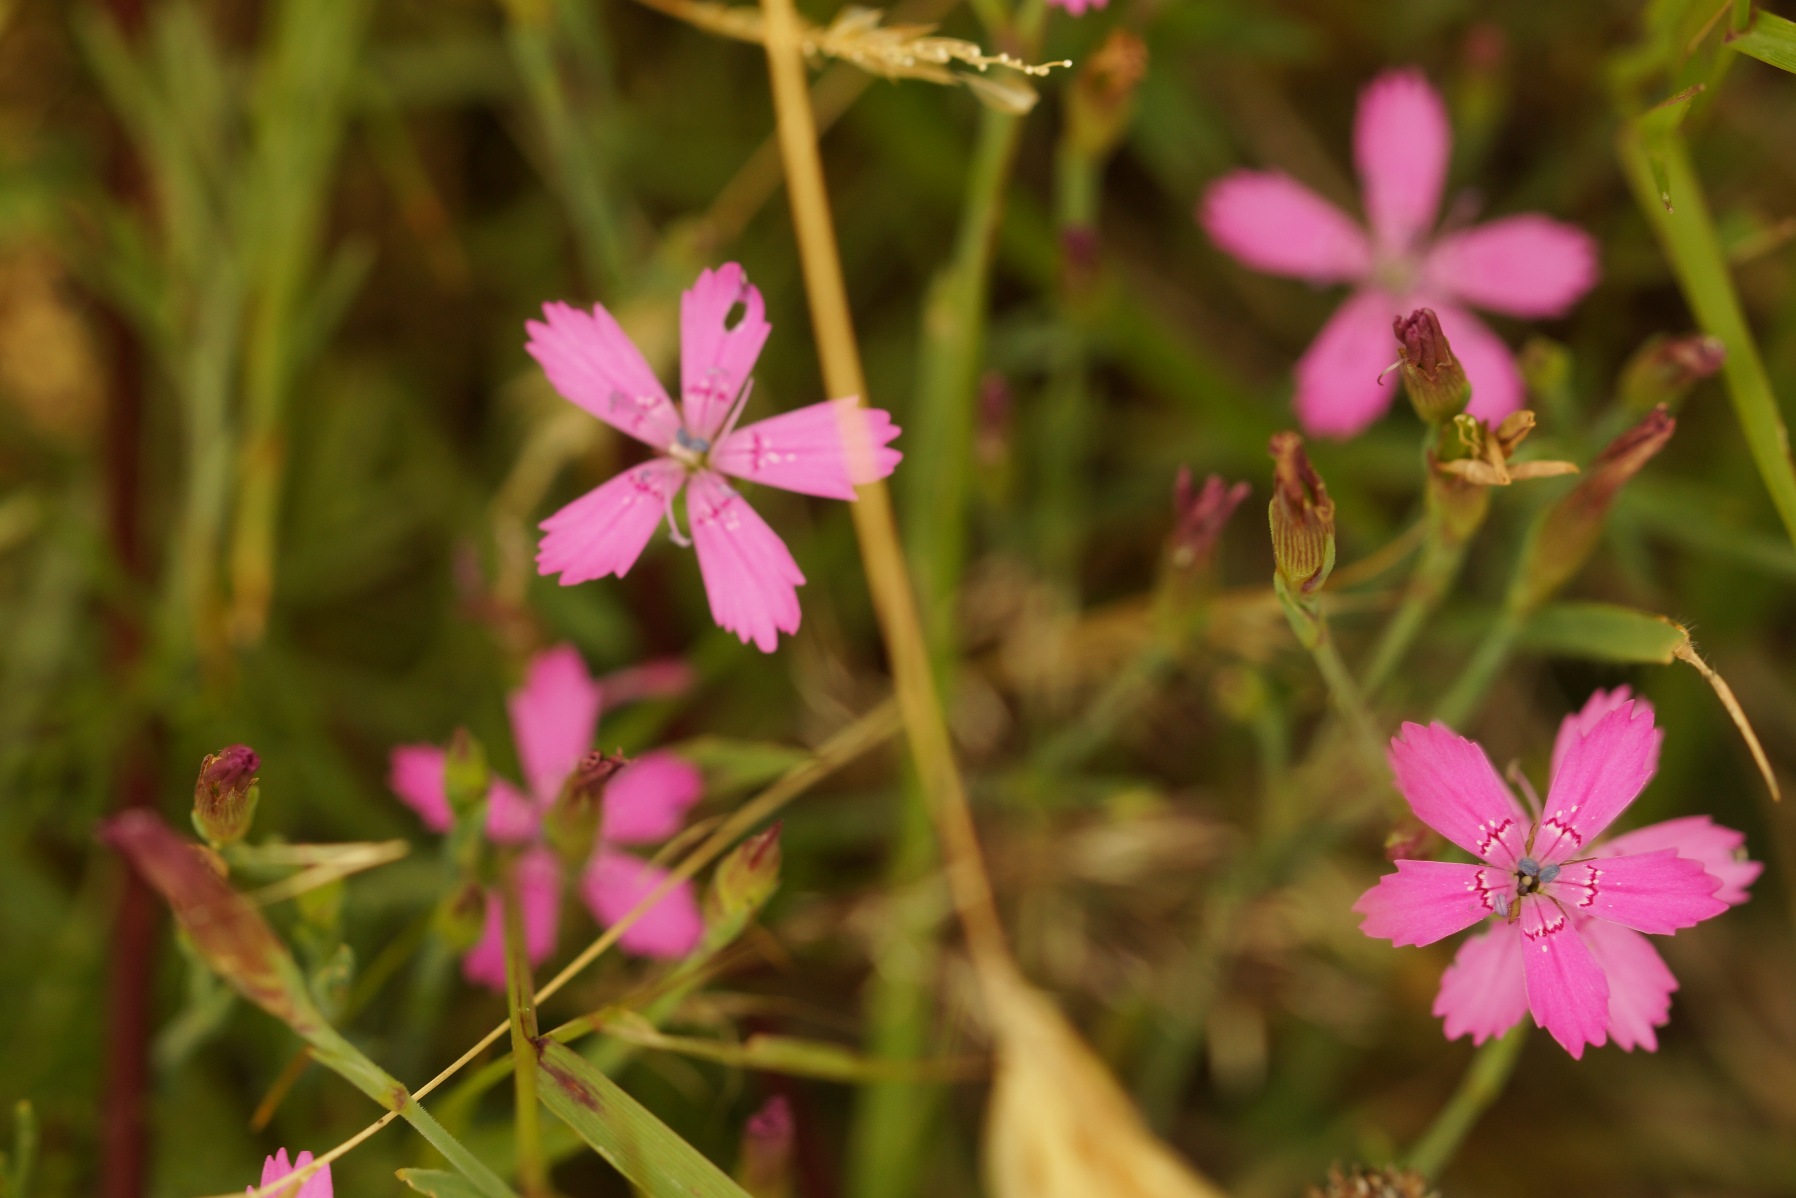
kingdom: Plantae
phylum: Tracheophyta
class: Magnoliopsida
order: Caryophyllales
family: Caryophyllaceae
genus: Dianthus
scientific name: Dianthus deltoides
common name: Bakke-nellike
